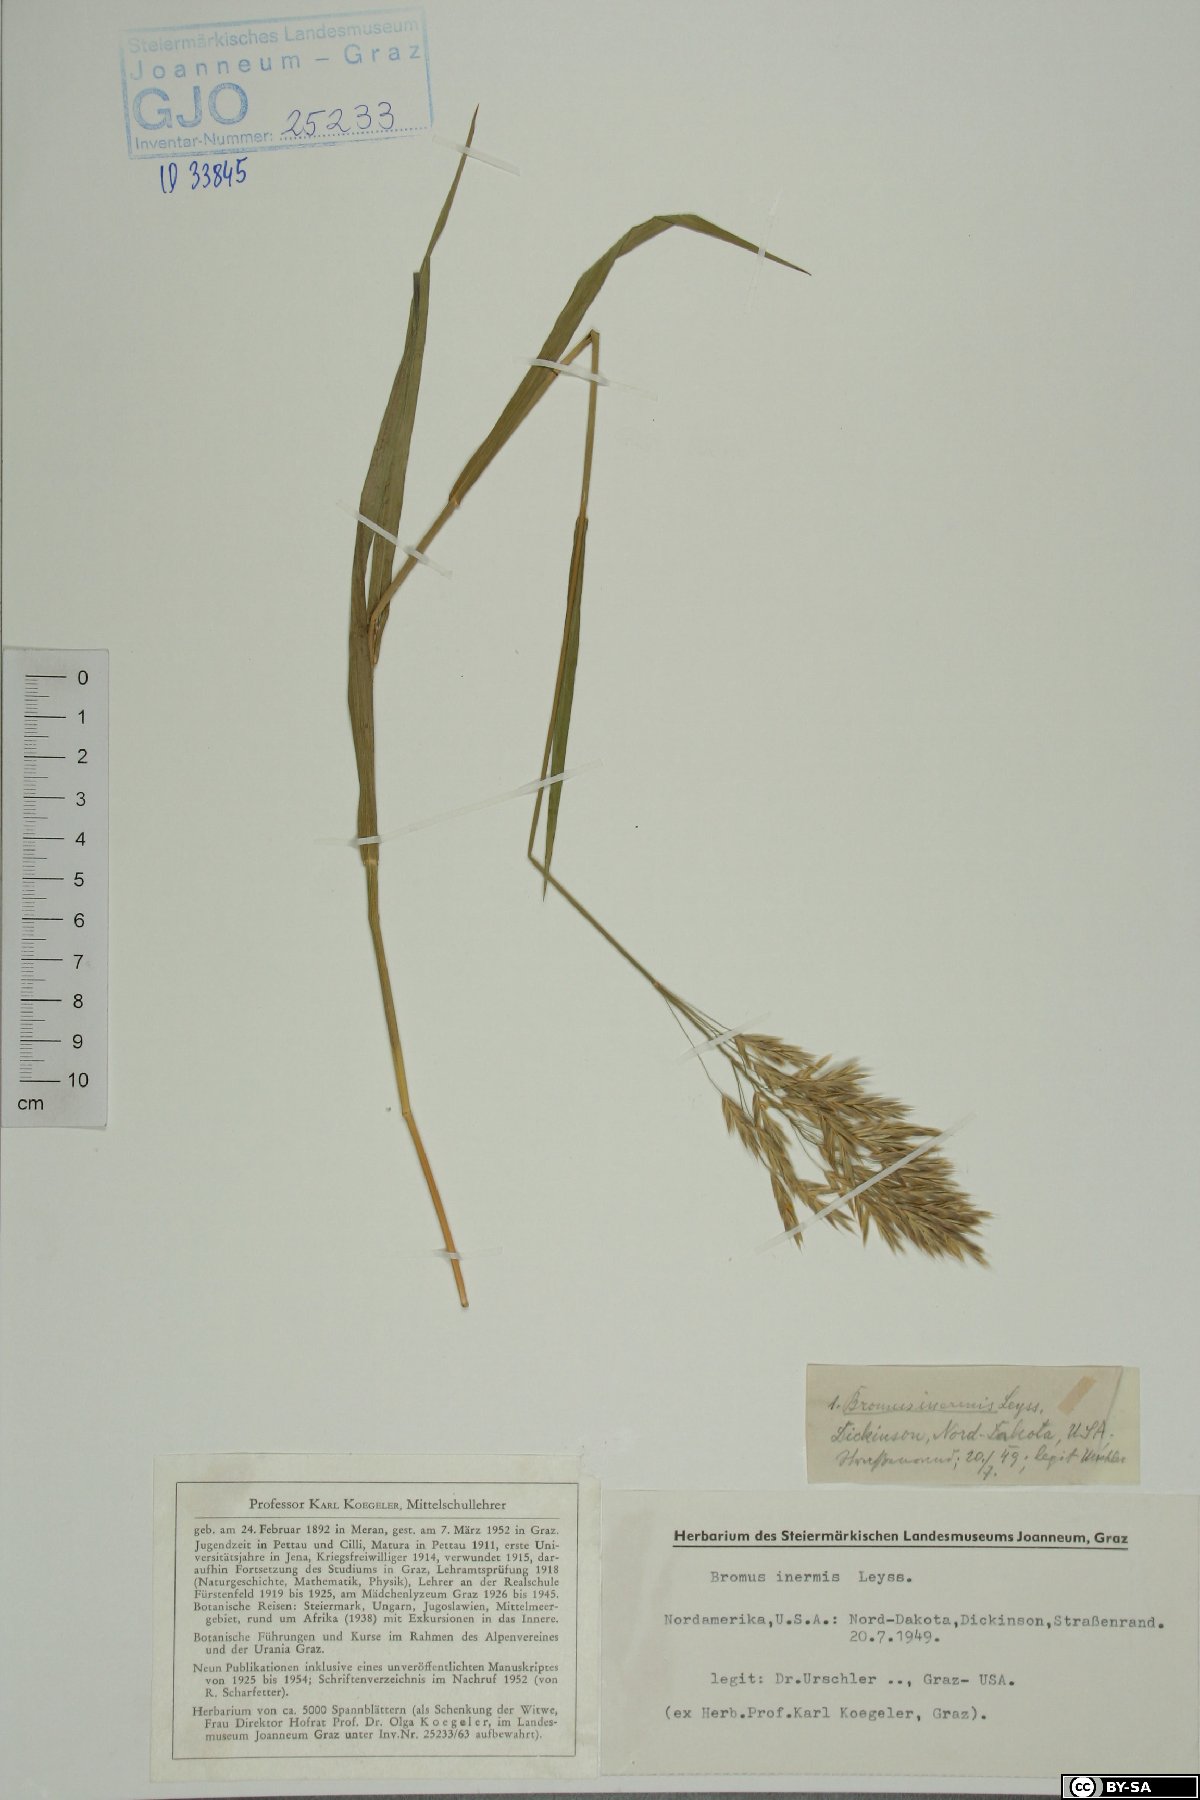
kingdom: Plantae
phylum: Tracheophyta
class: Liliopsida
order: Poales
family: Poaceae
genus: Bromus
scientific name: Bromus inermis
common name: Smooth brome
